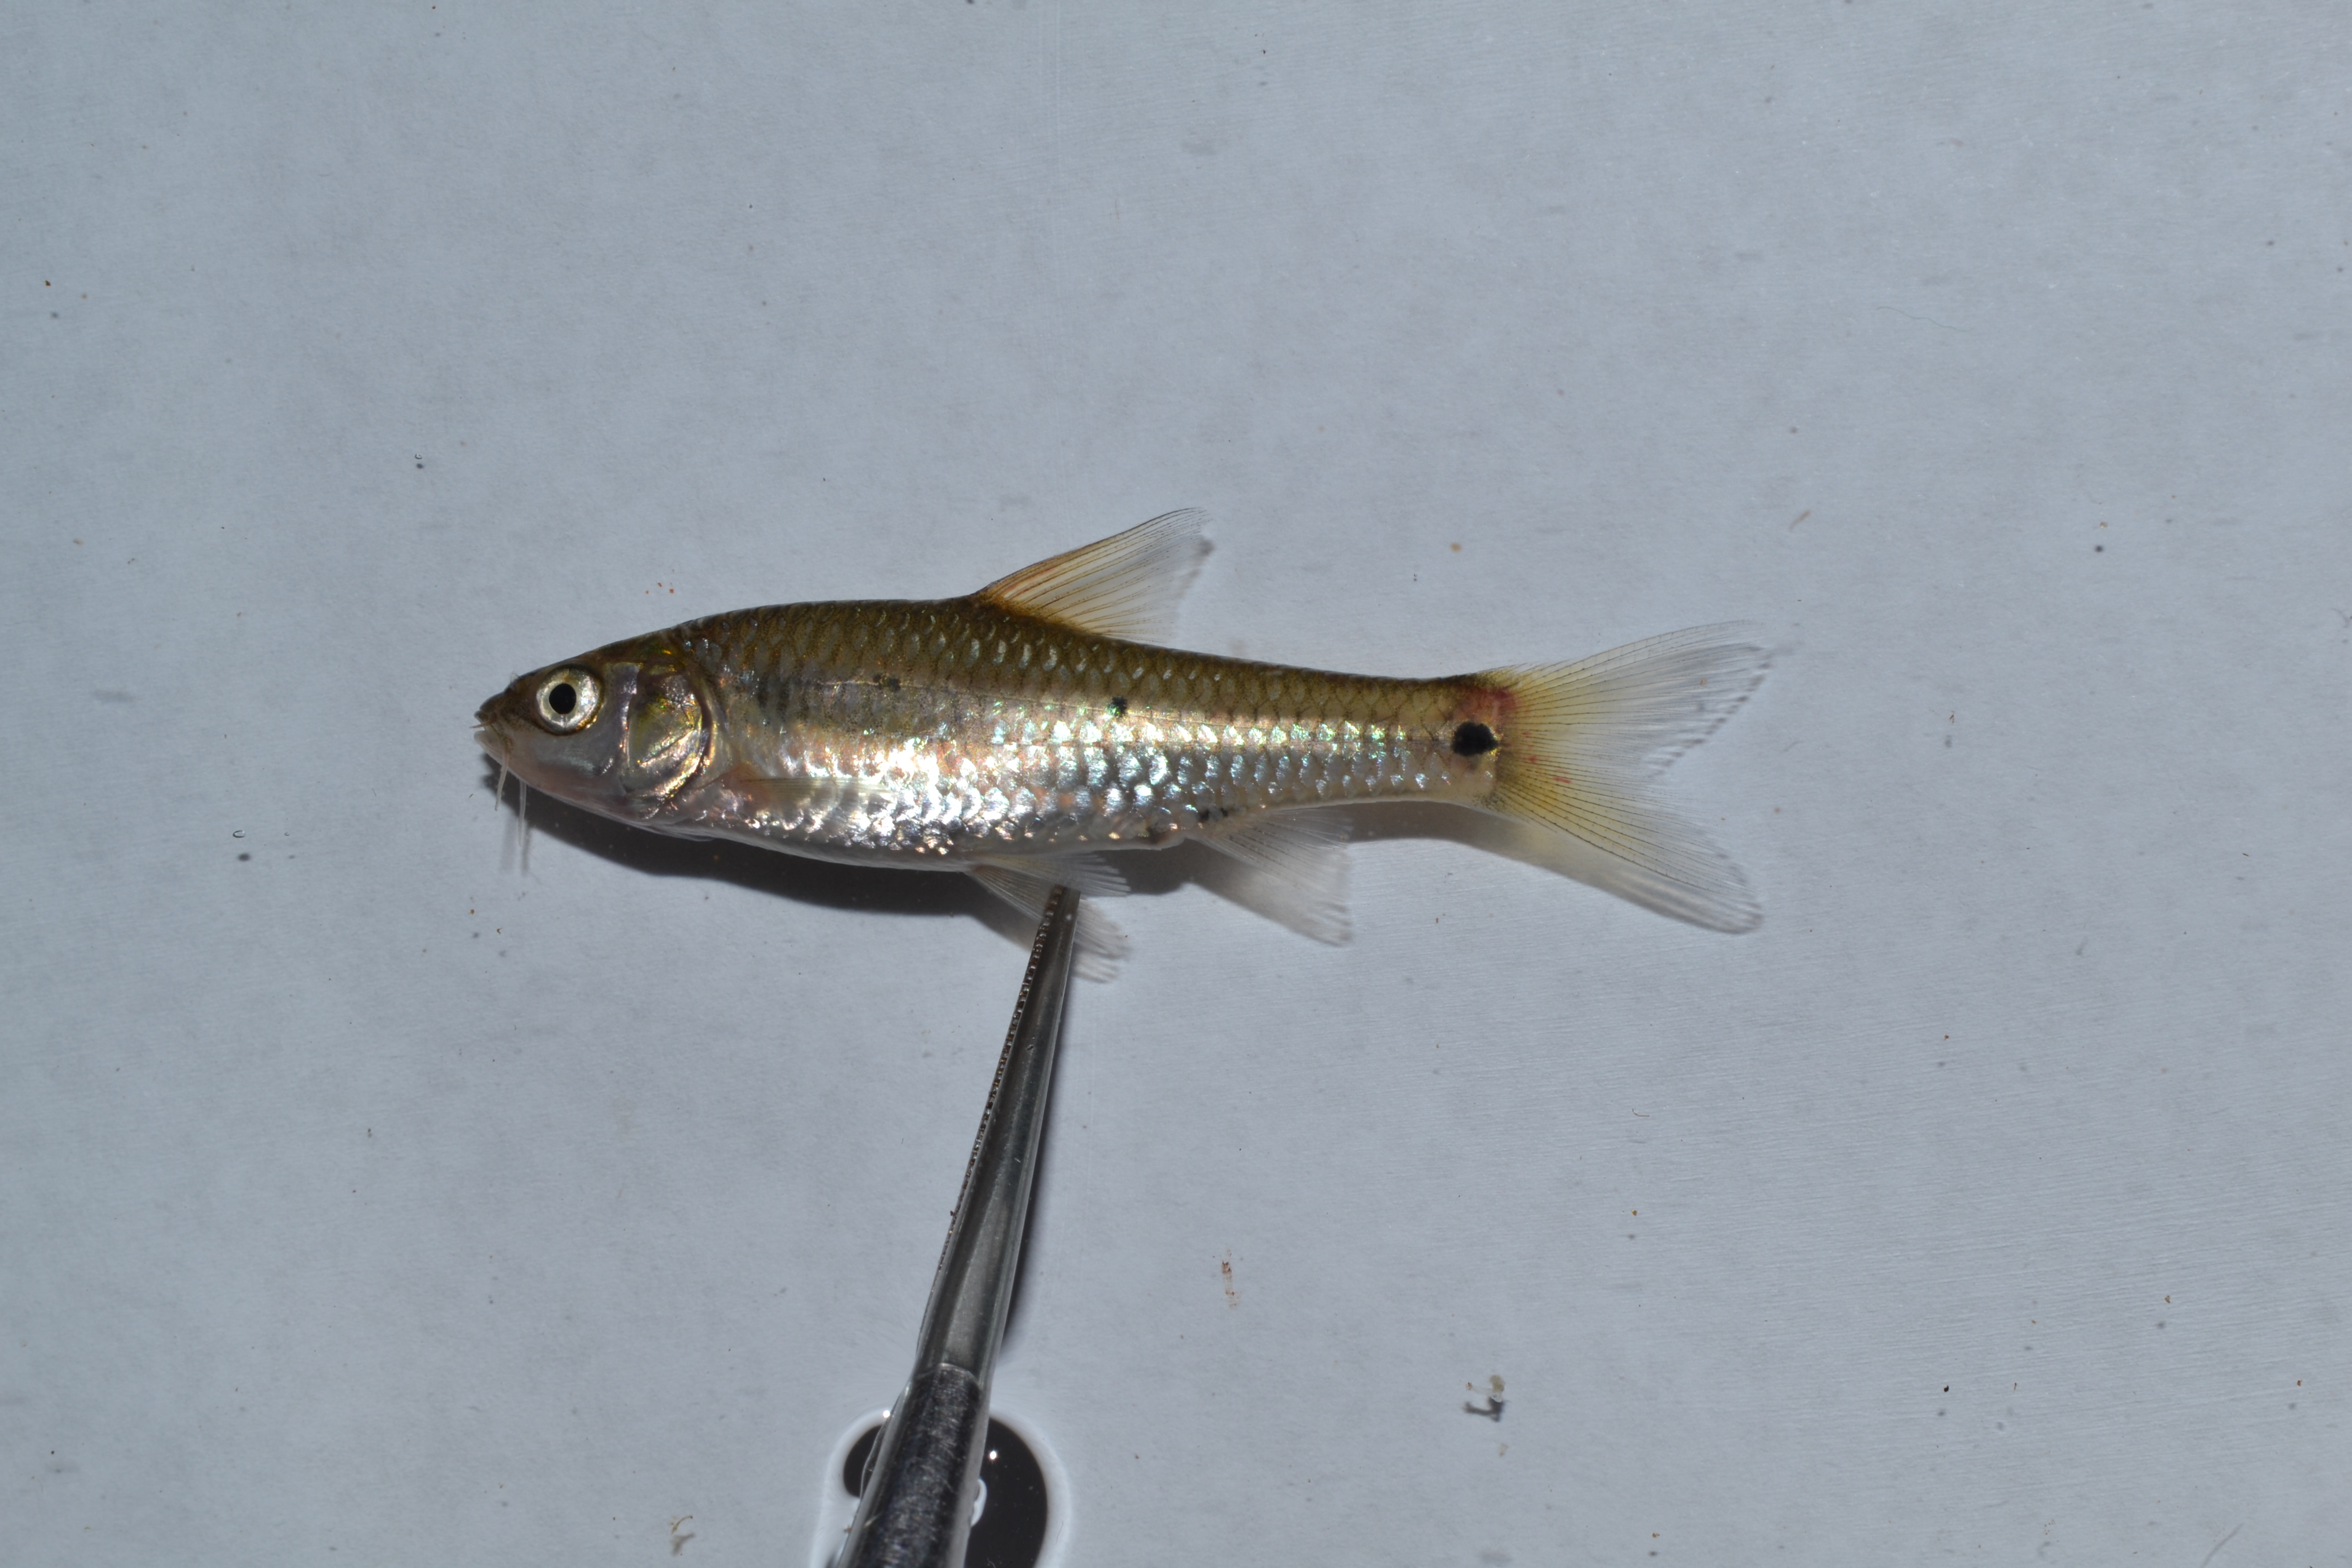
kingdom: Animalia
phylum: Chordata
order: Cypriniformes
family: Cyprinidae
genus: Enteromius
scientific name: Enteromius trimaculatus
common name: Threespot barb
